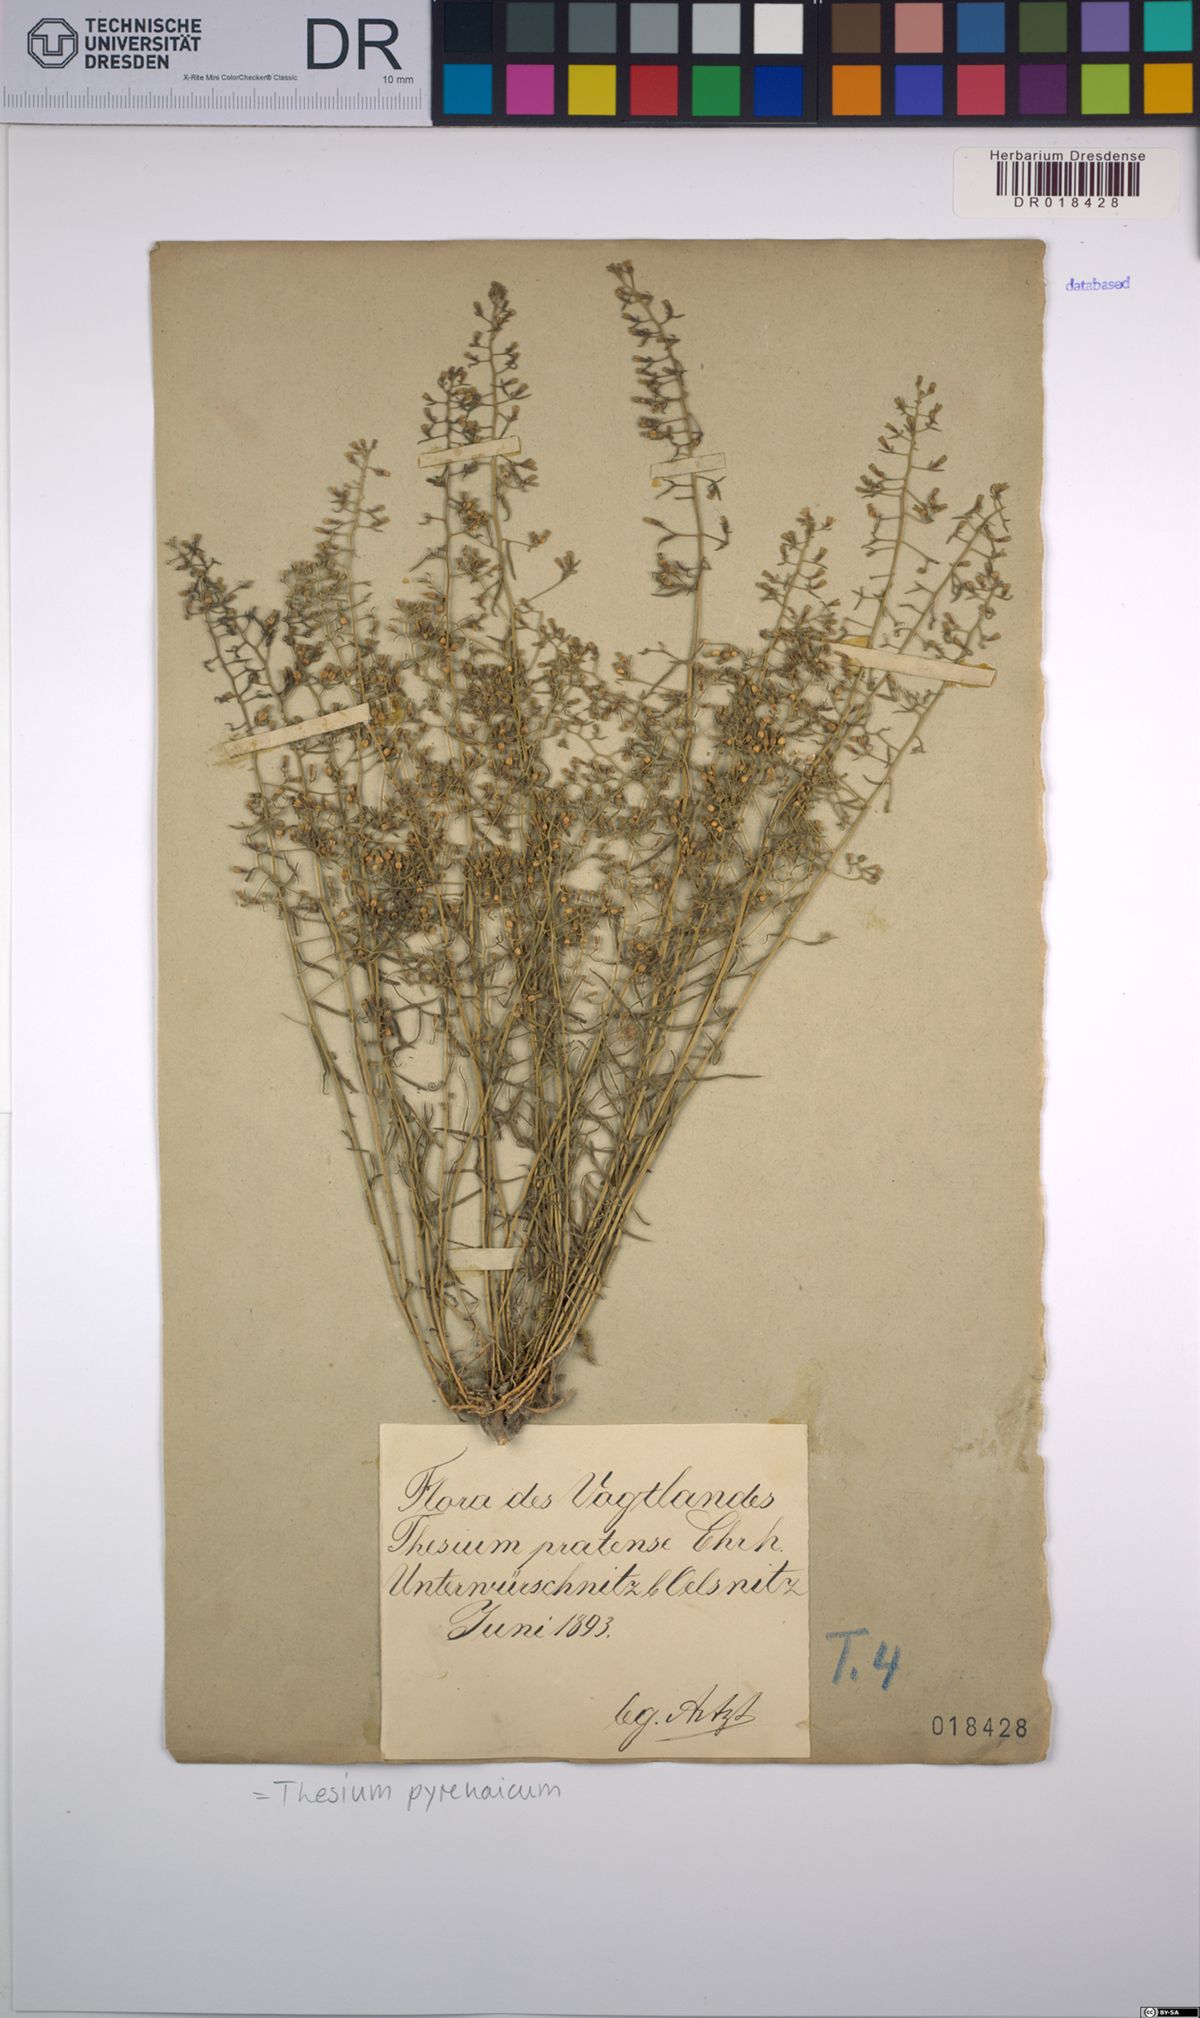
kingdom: Plantae
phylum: Tracheophyta
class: Magnoliopsida
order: Santalales
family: Thesiaceae
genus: Thesium
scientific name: Thesium pyrenaicum
